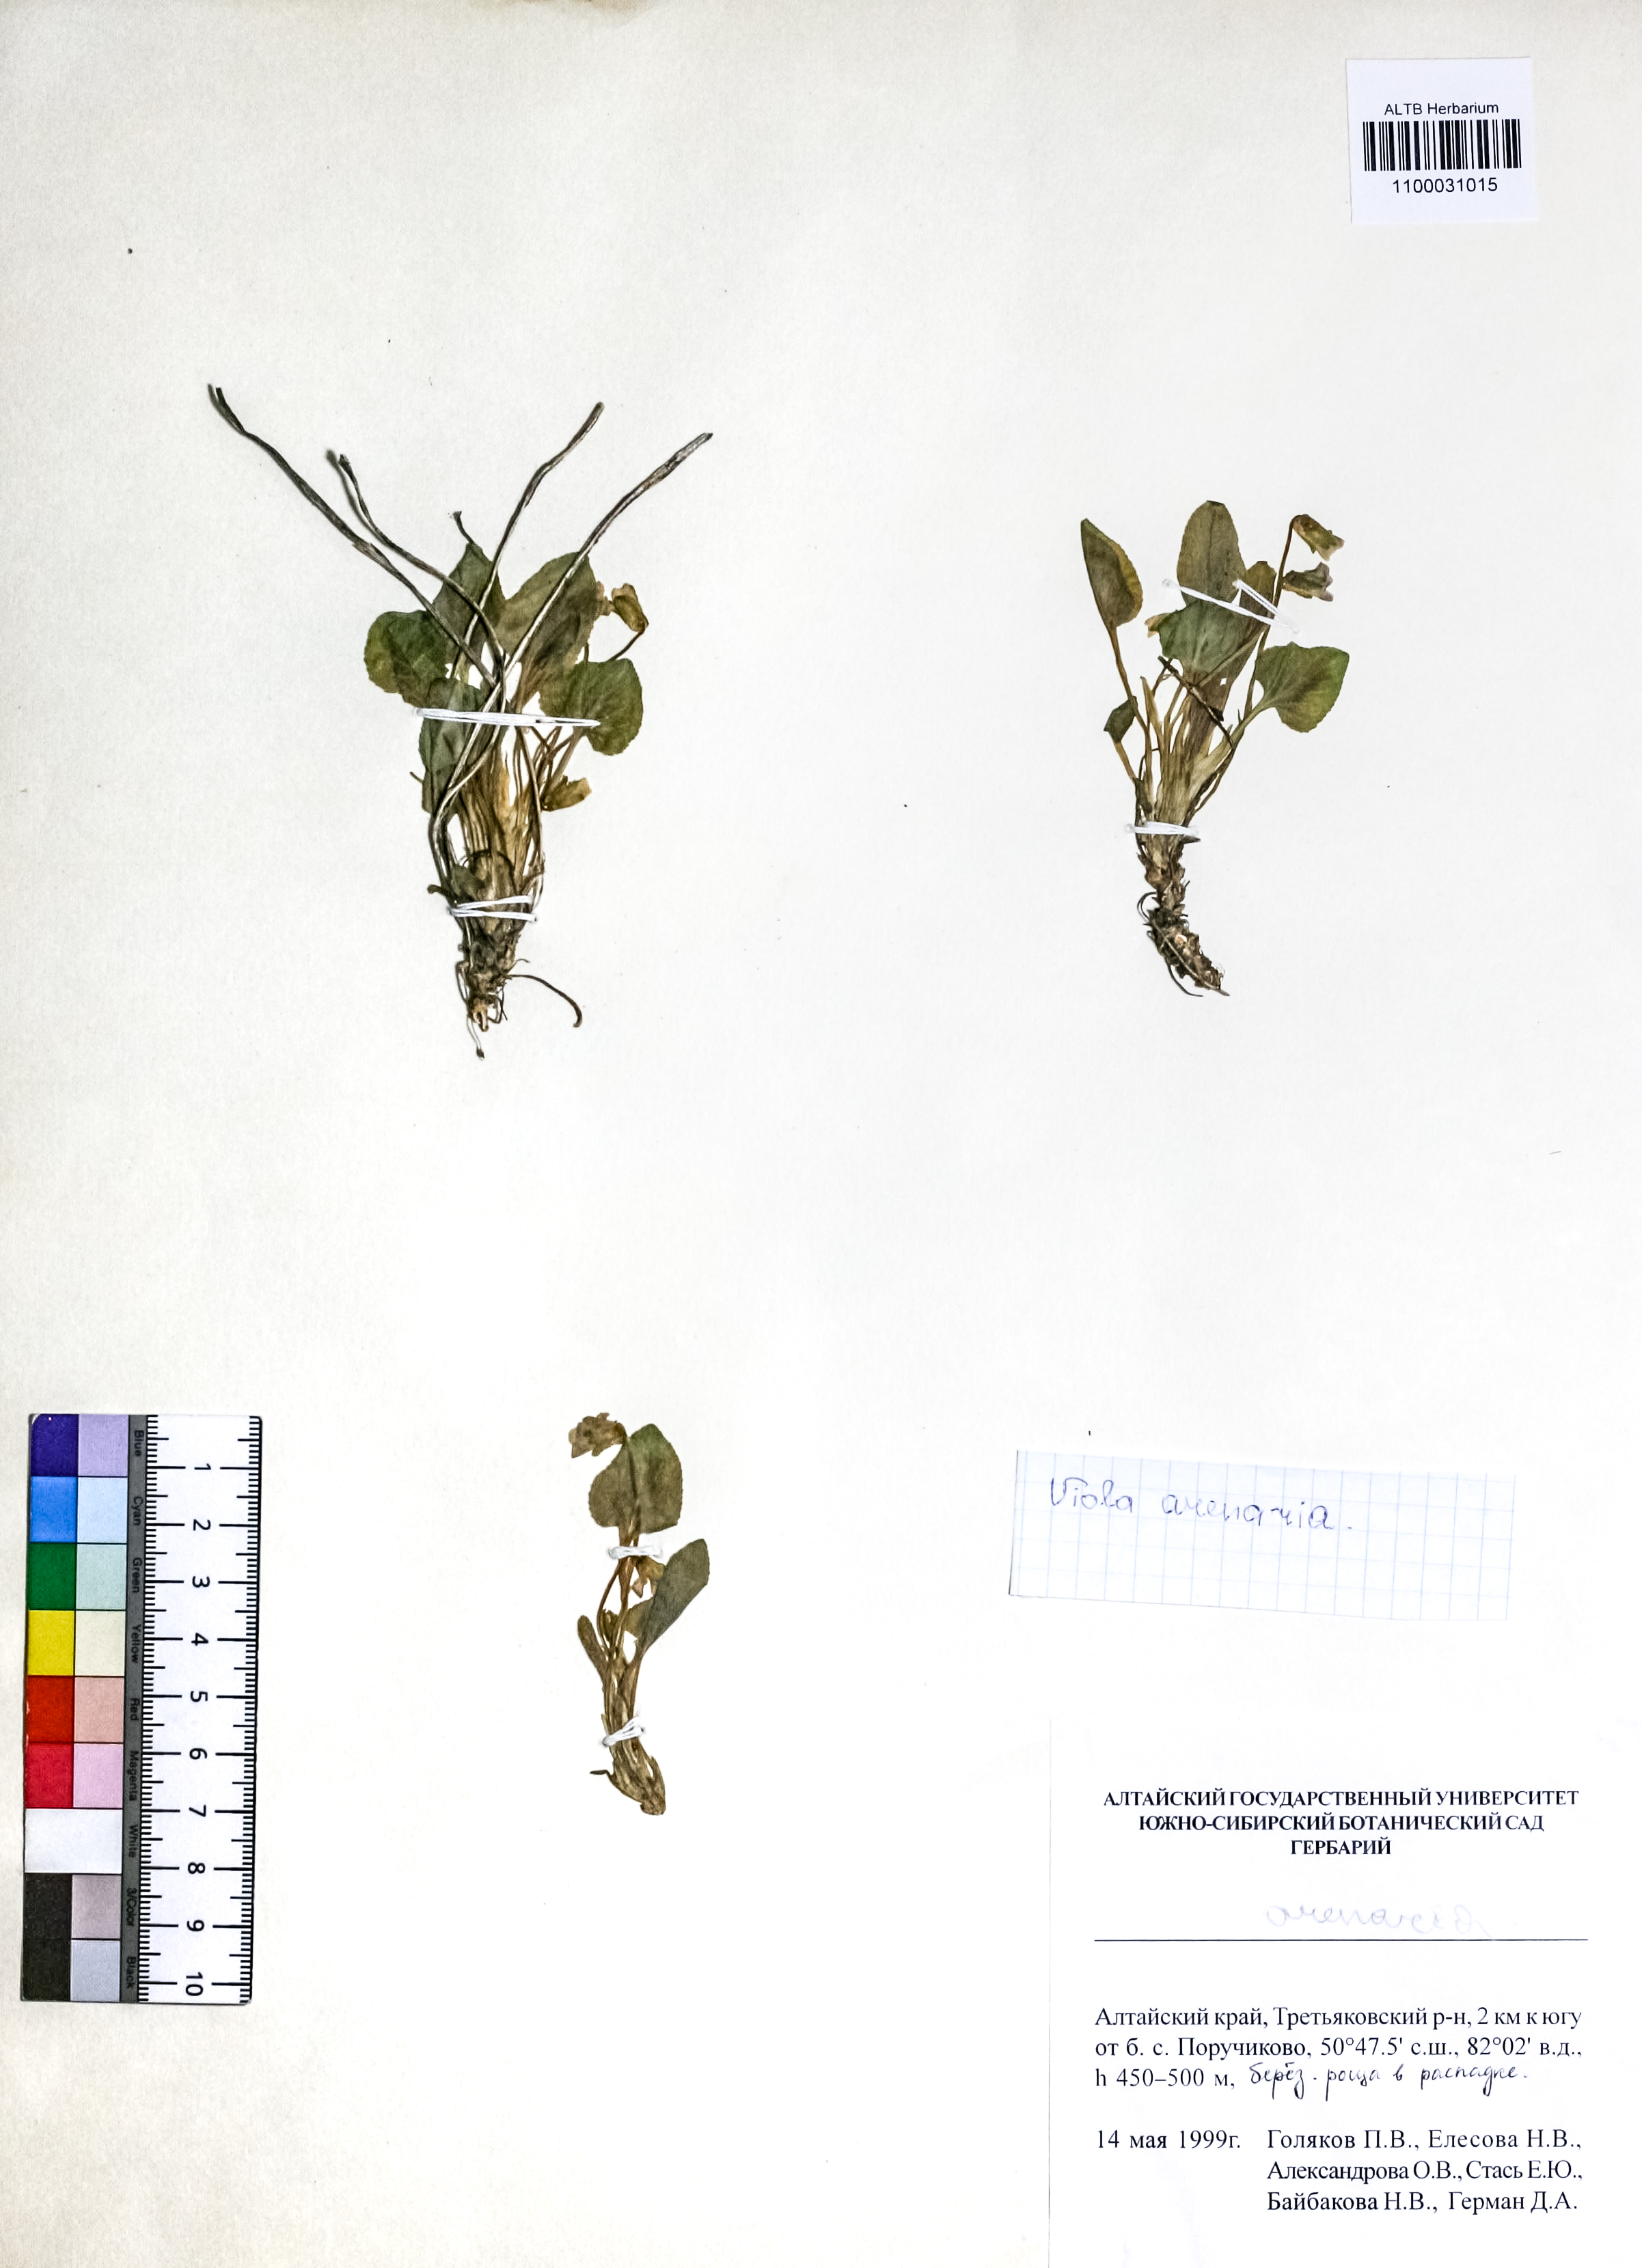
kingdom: Plantae
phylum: Tracheophyta
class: Magnoliopsida
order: Malpighiales
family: Violaceae
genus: Viola
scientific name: Viola rupestris
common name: Teesdale violet
